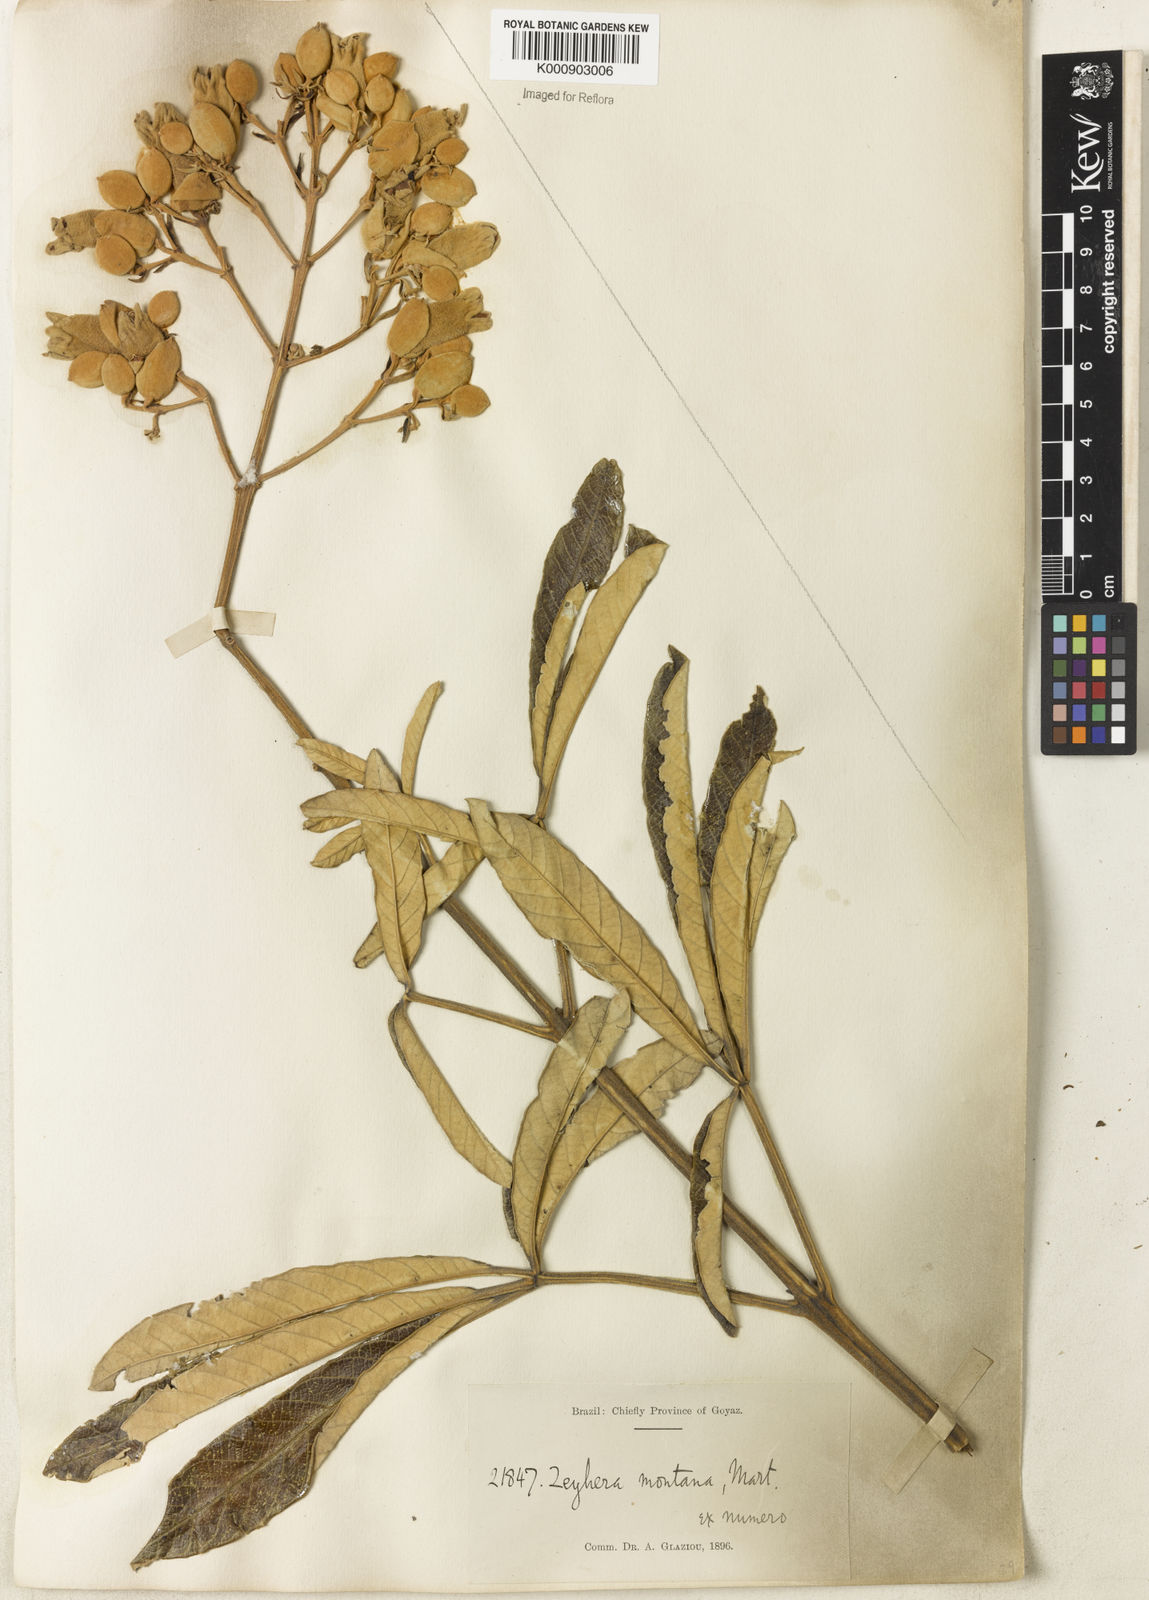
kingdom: Plantae
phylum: Tracheophyta
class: Magnoliopsida
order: Lamiales
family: Bignoniaceae
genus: Zeyheria
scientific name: Zeyheria montana
